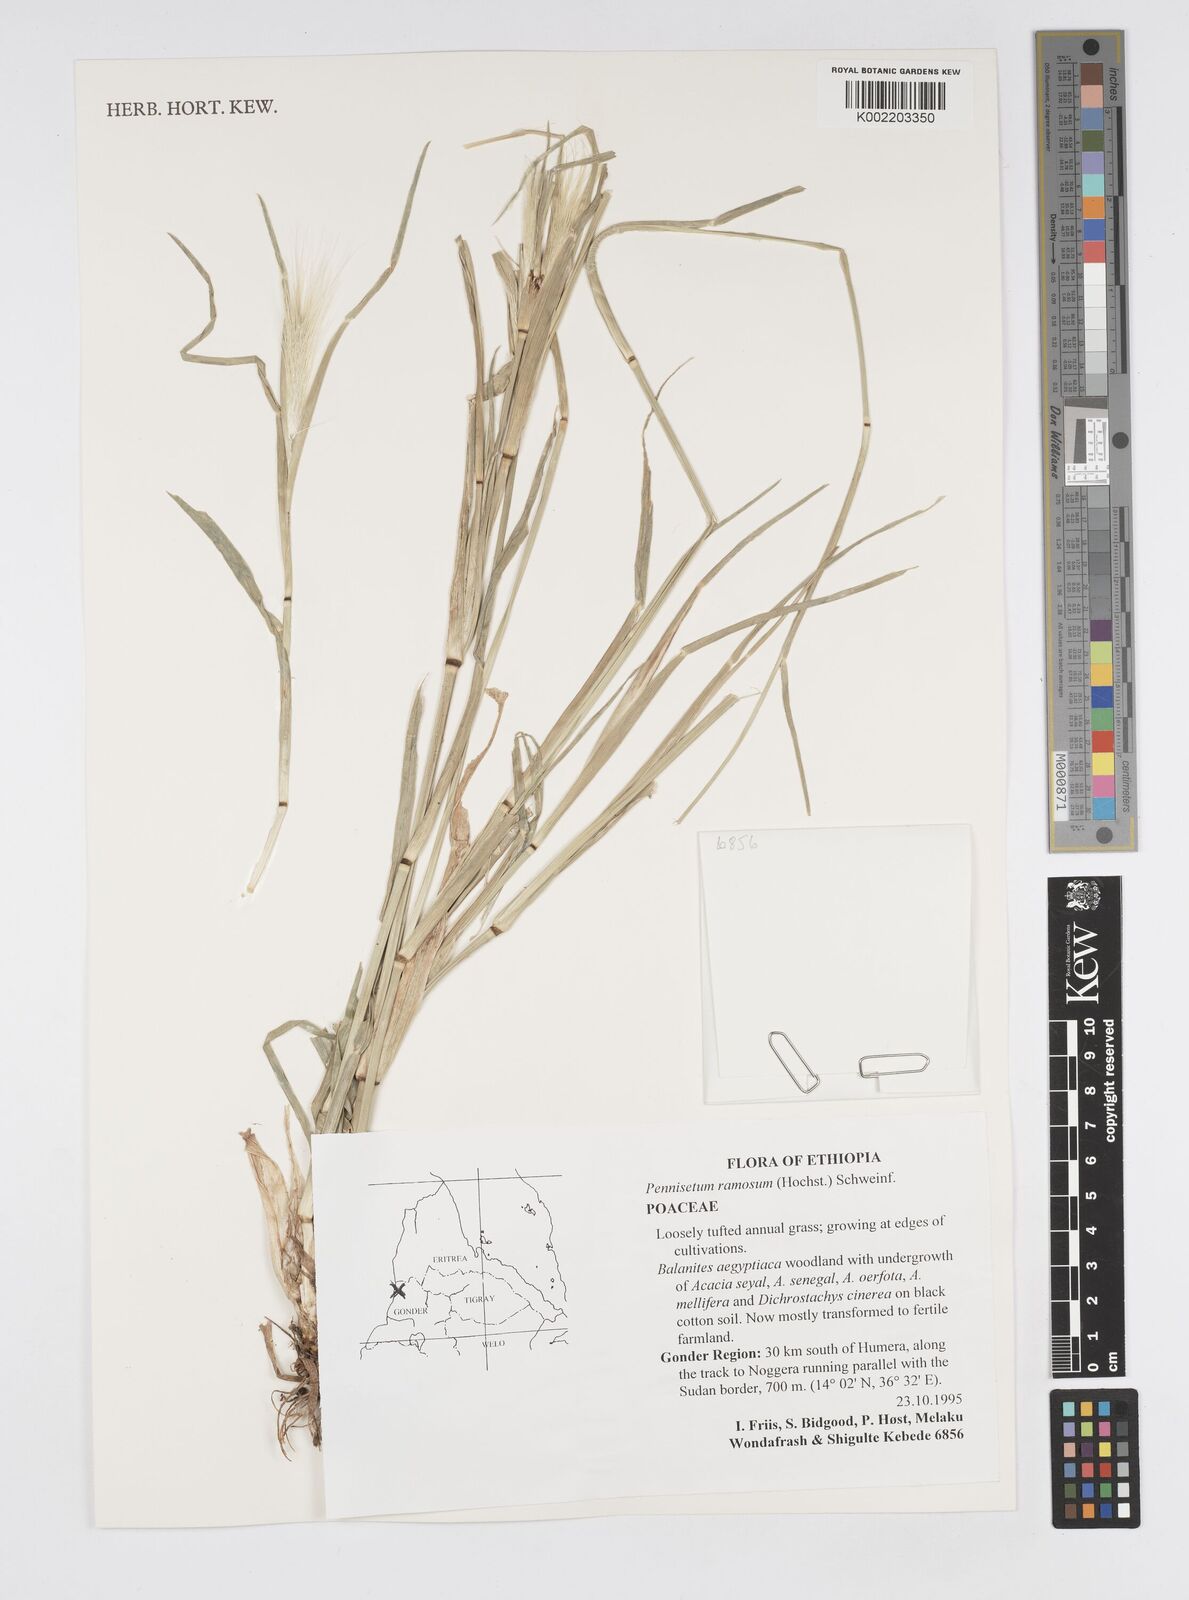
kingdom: Plantae
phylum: Tracheophyta
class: Liliopsida
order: Poales
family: Poaceae
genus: Cenchrus
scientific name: Cenchrus ramosus
